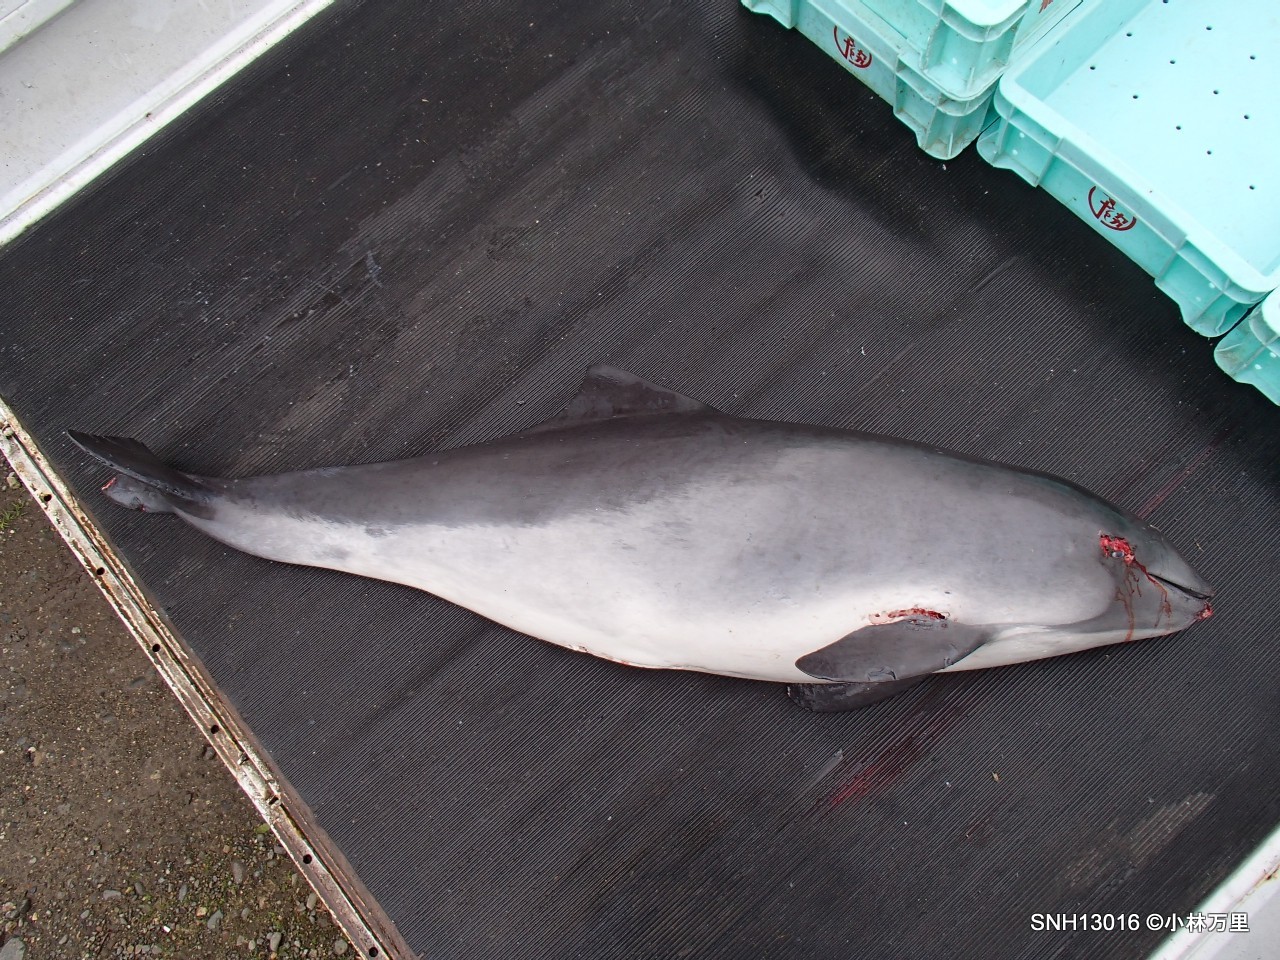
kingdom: Animalia
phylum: Chordata
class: Mammalia
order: Cetacea
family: Phocoenidae
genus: Phocoena
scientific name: Phocoena phocoena
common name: Harbour porpoise
